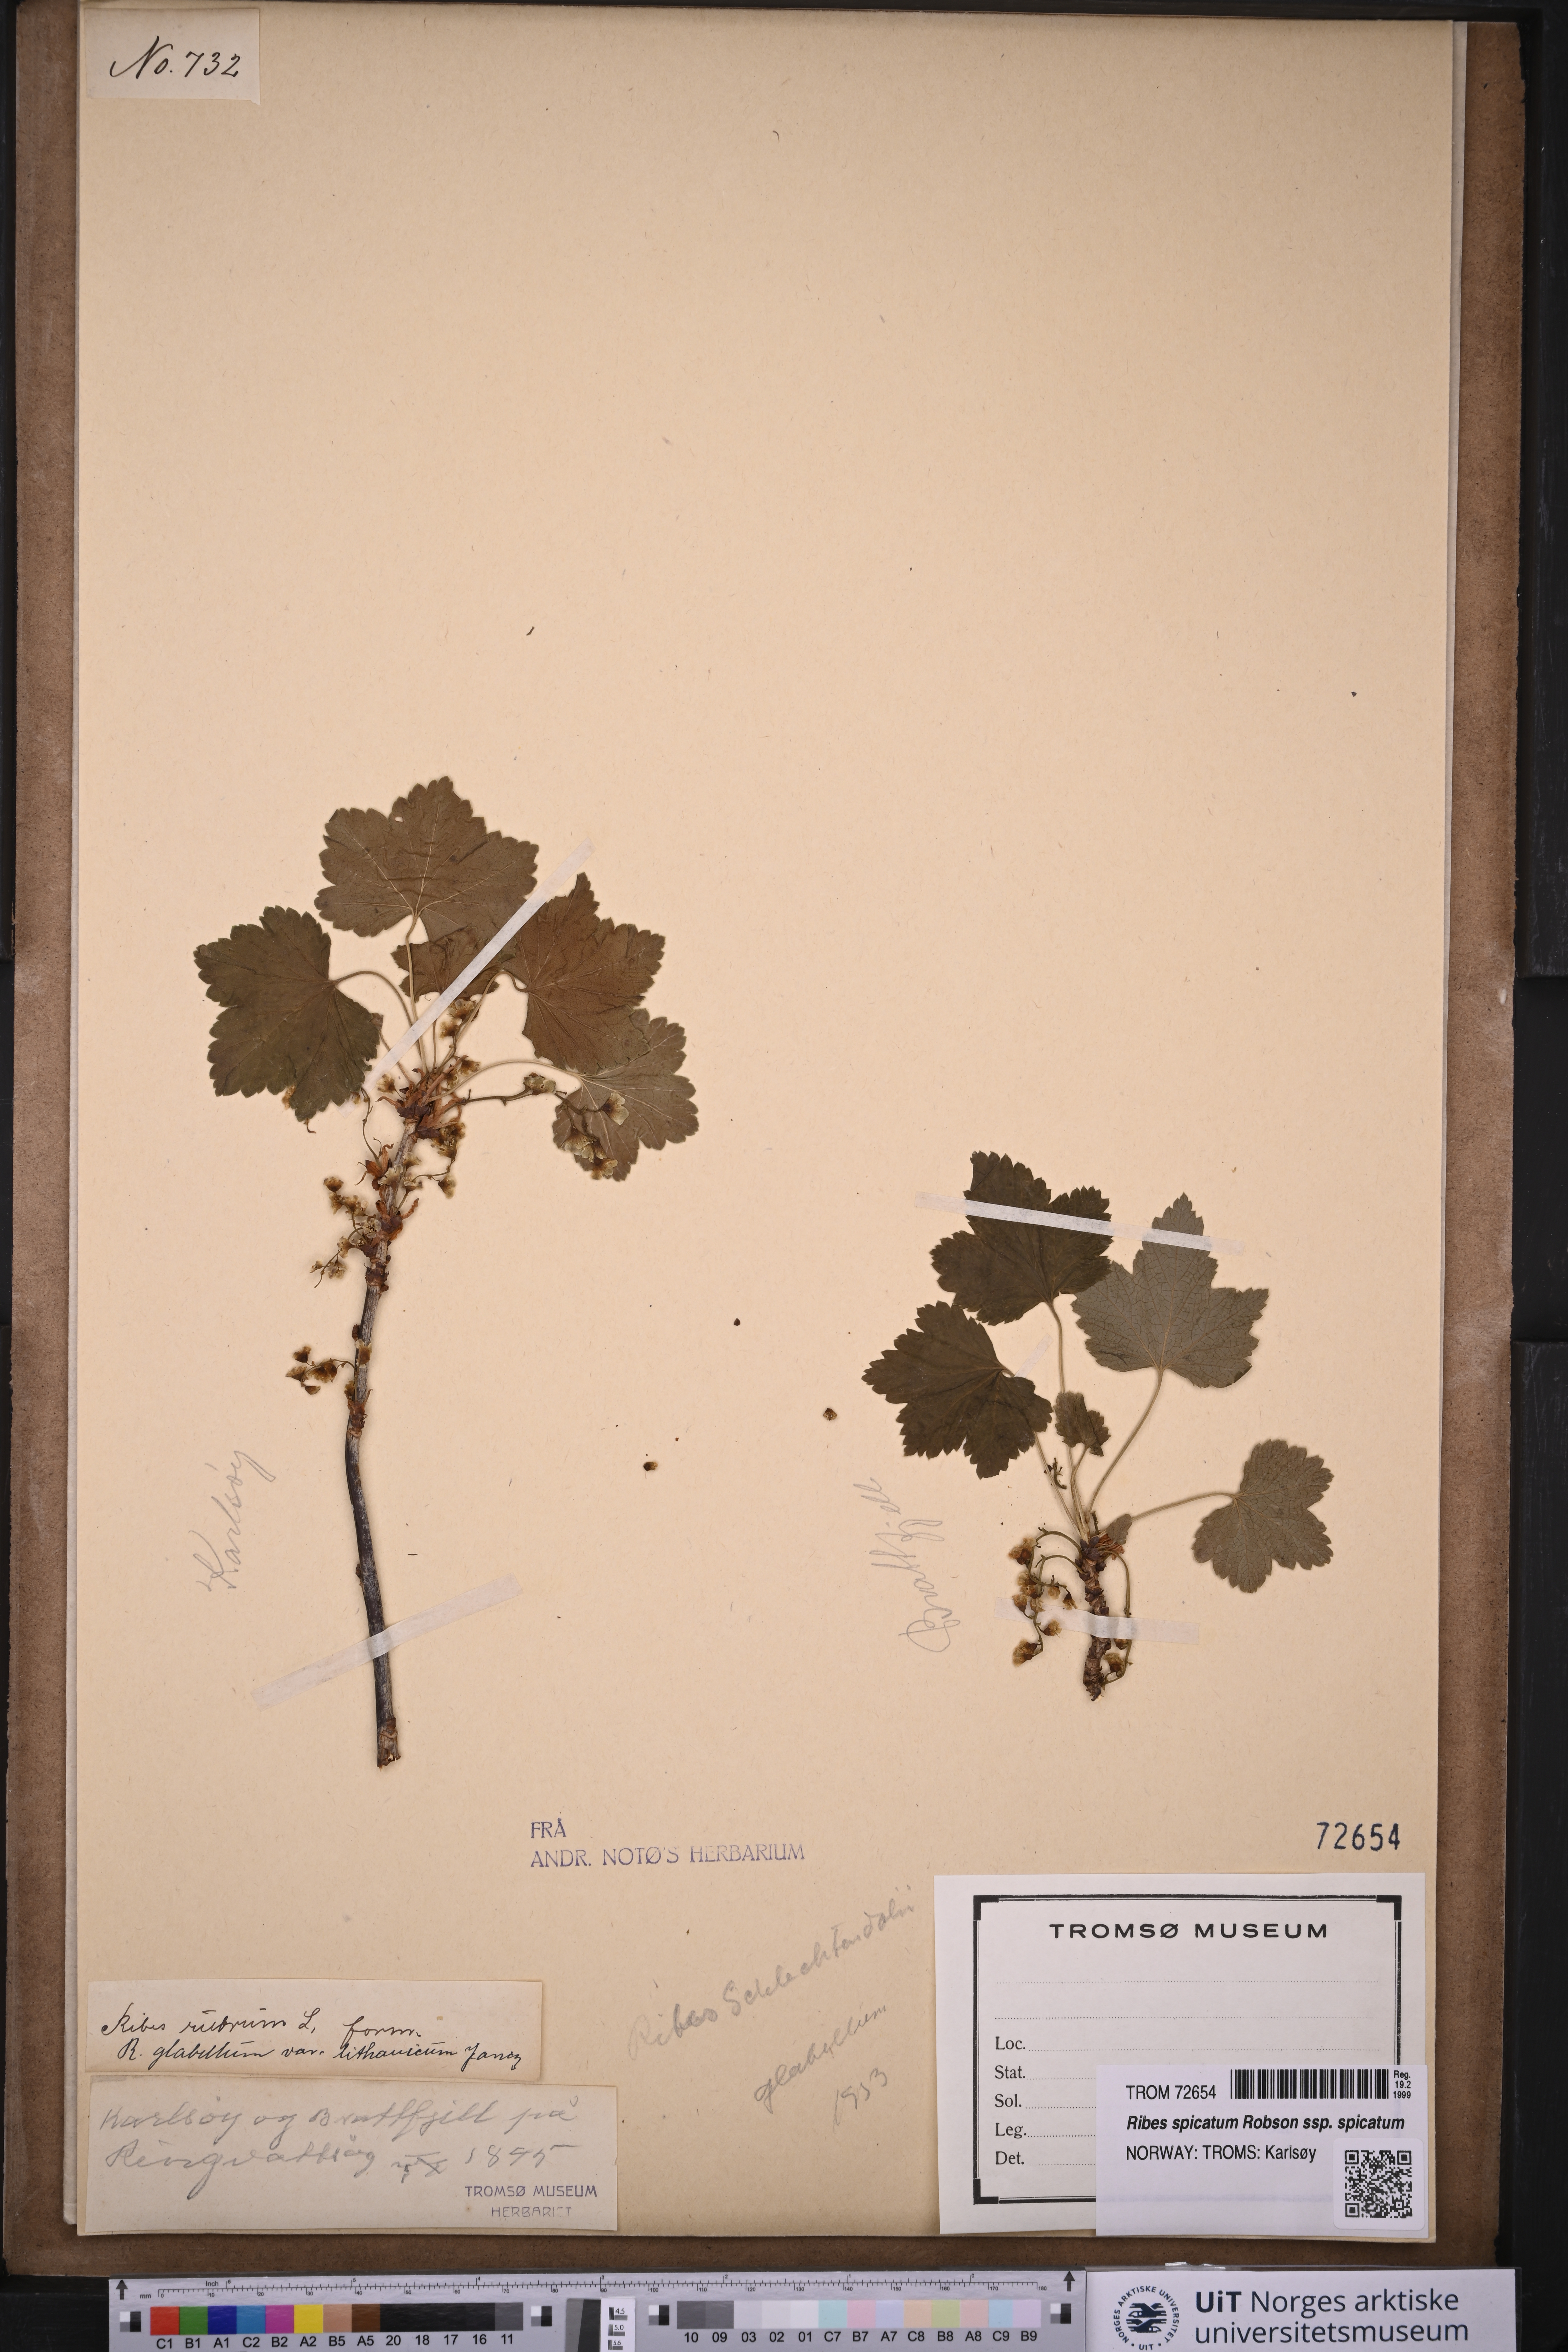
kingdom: Plantae
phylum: Tracheophyta
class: Magnoliopsida
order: Saxifragales
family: Grossulariaceae
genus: Ribes
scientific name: Ribes spicatum
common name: Downy currant
